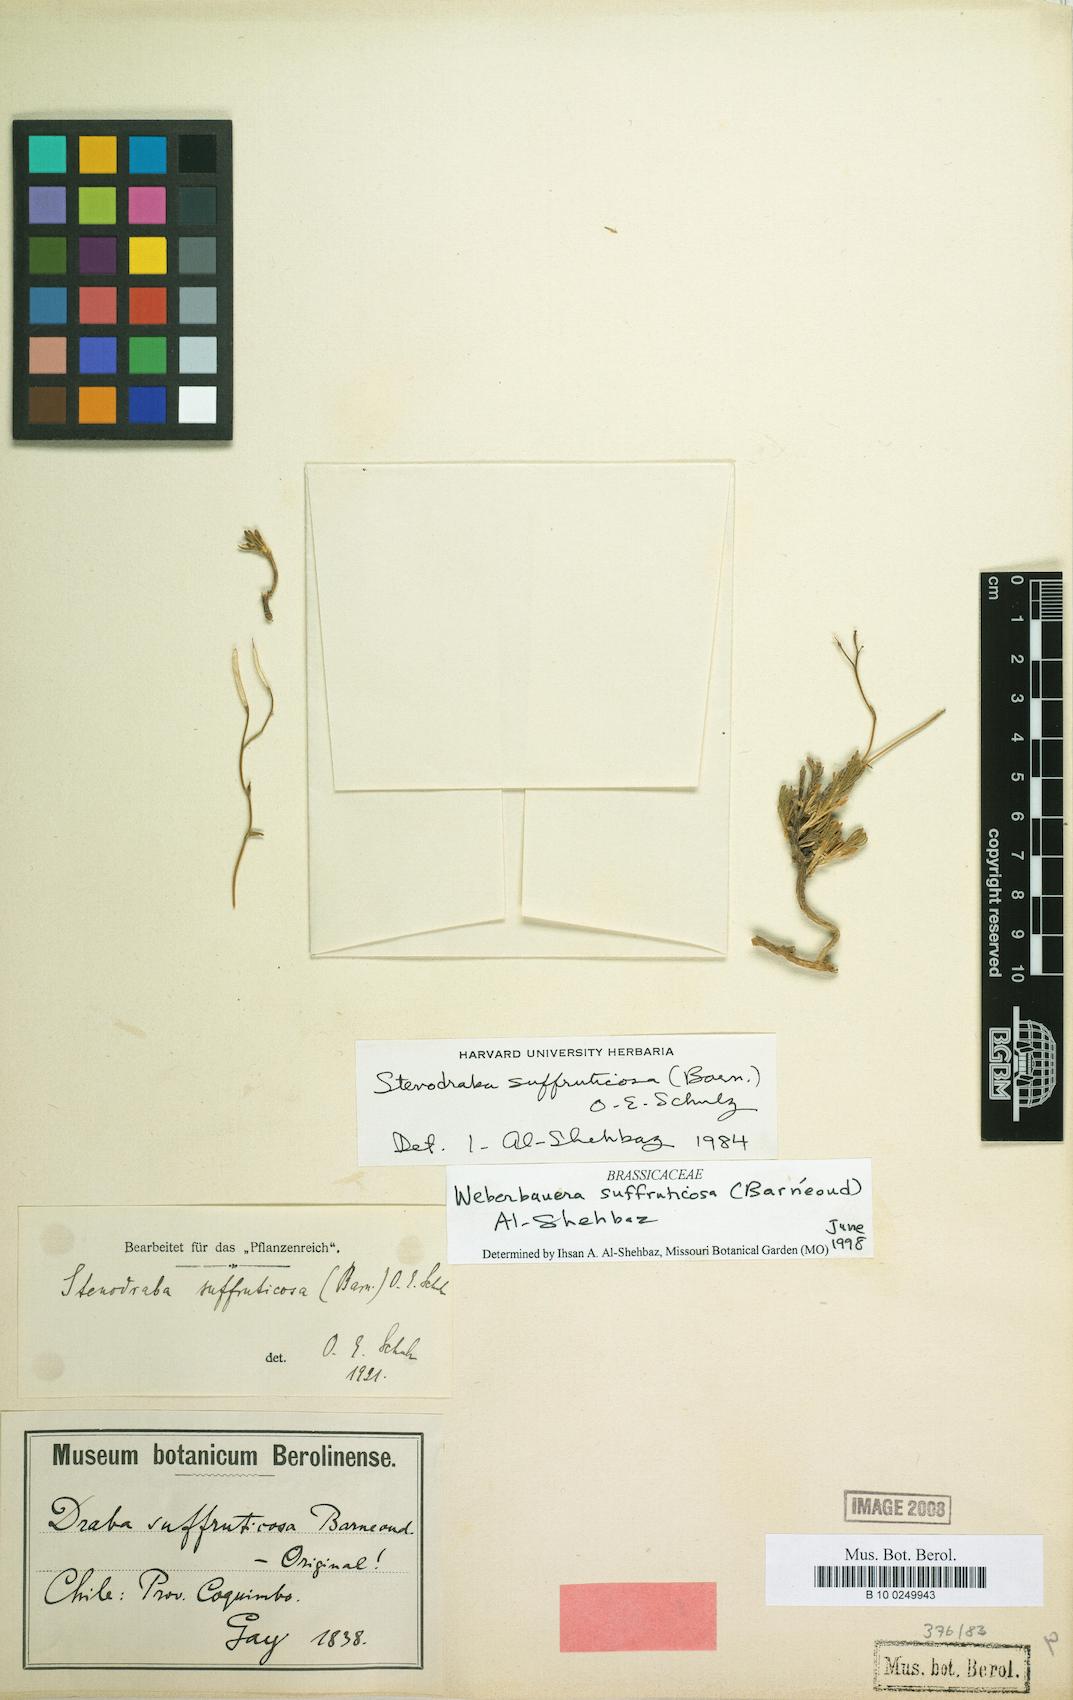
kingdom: Plantae
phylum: Tracheophyta
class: Magnoliopsida
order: Brassicales
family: Brassicaceae
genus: Stenodraba
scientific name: Stenodraba suffruticosa
